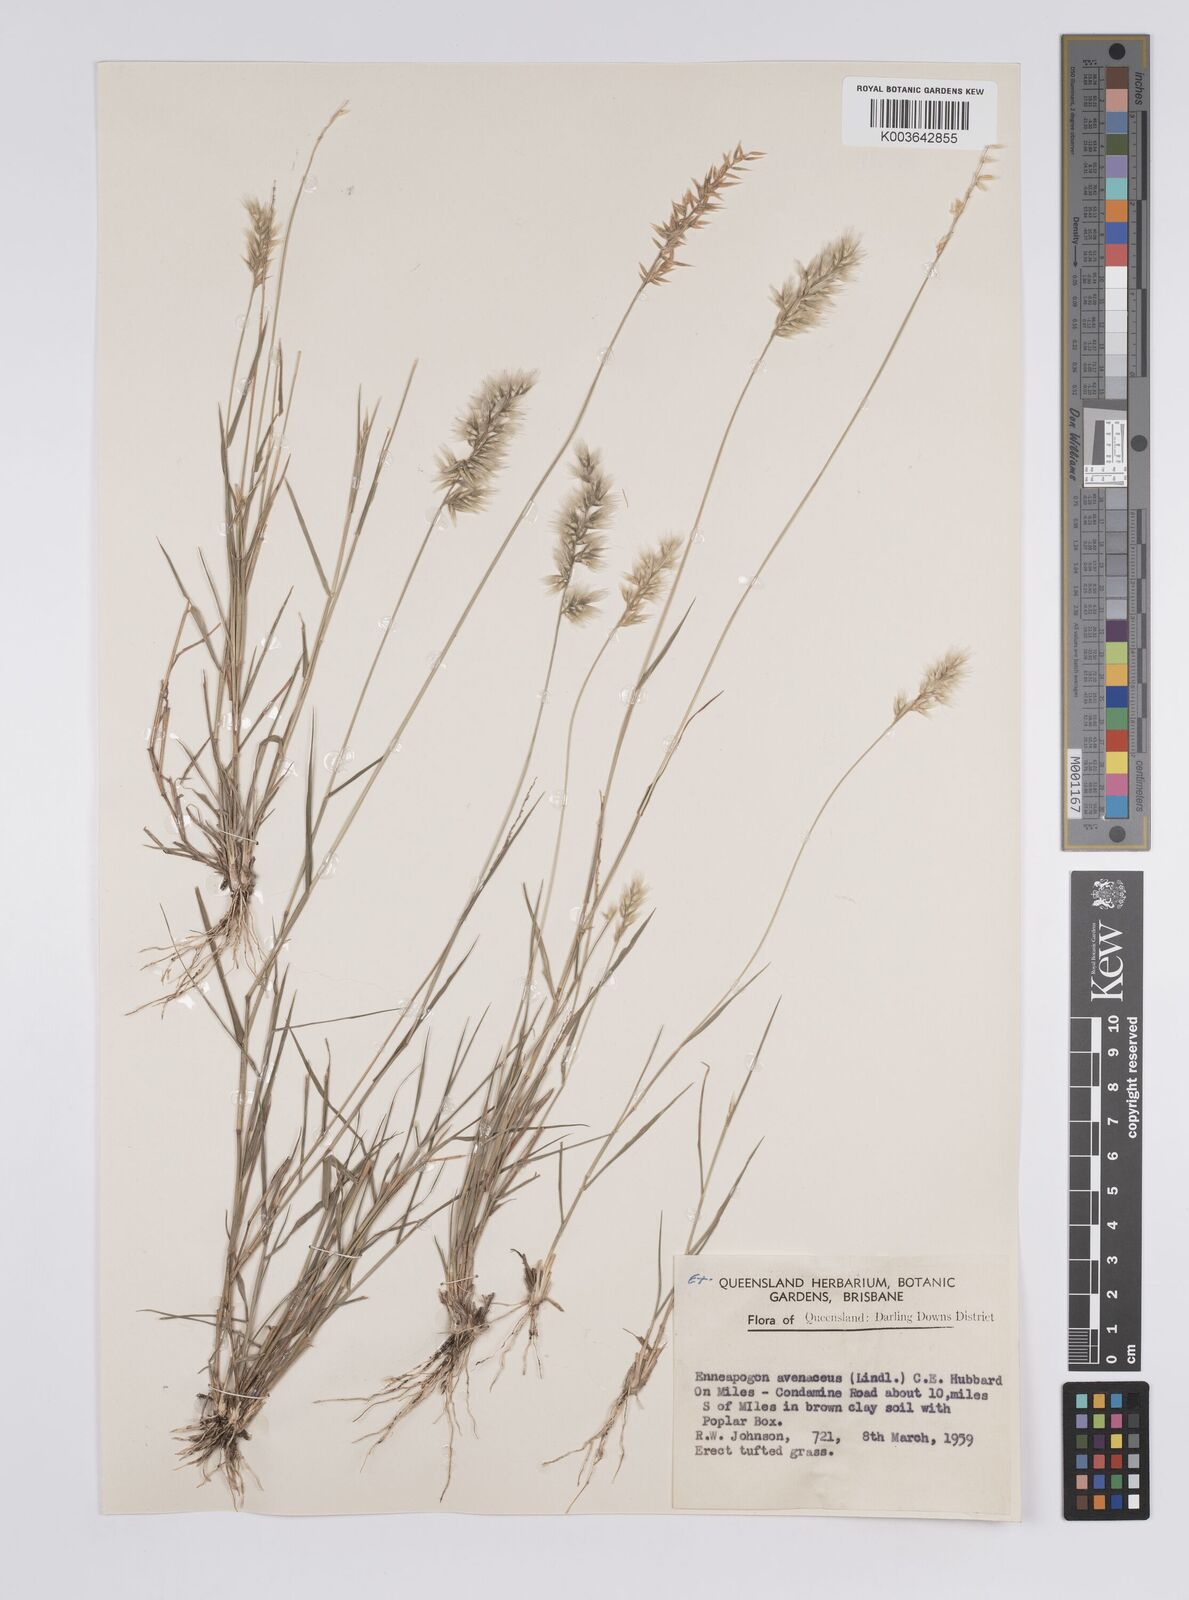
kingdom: Plantae
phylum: Tracheophyta
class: Liliopsida
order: Poales
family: Poaceae
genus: Enneapogon
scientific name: Enneapogon avenaceus
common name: Hairy oat grass
